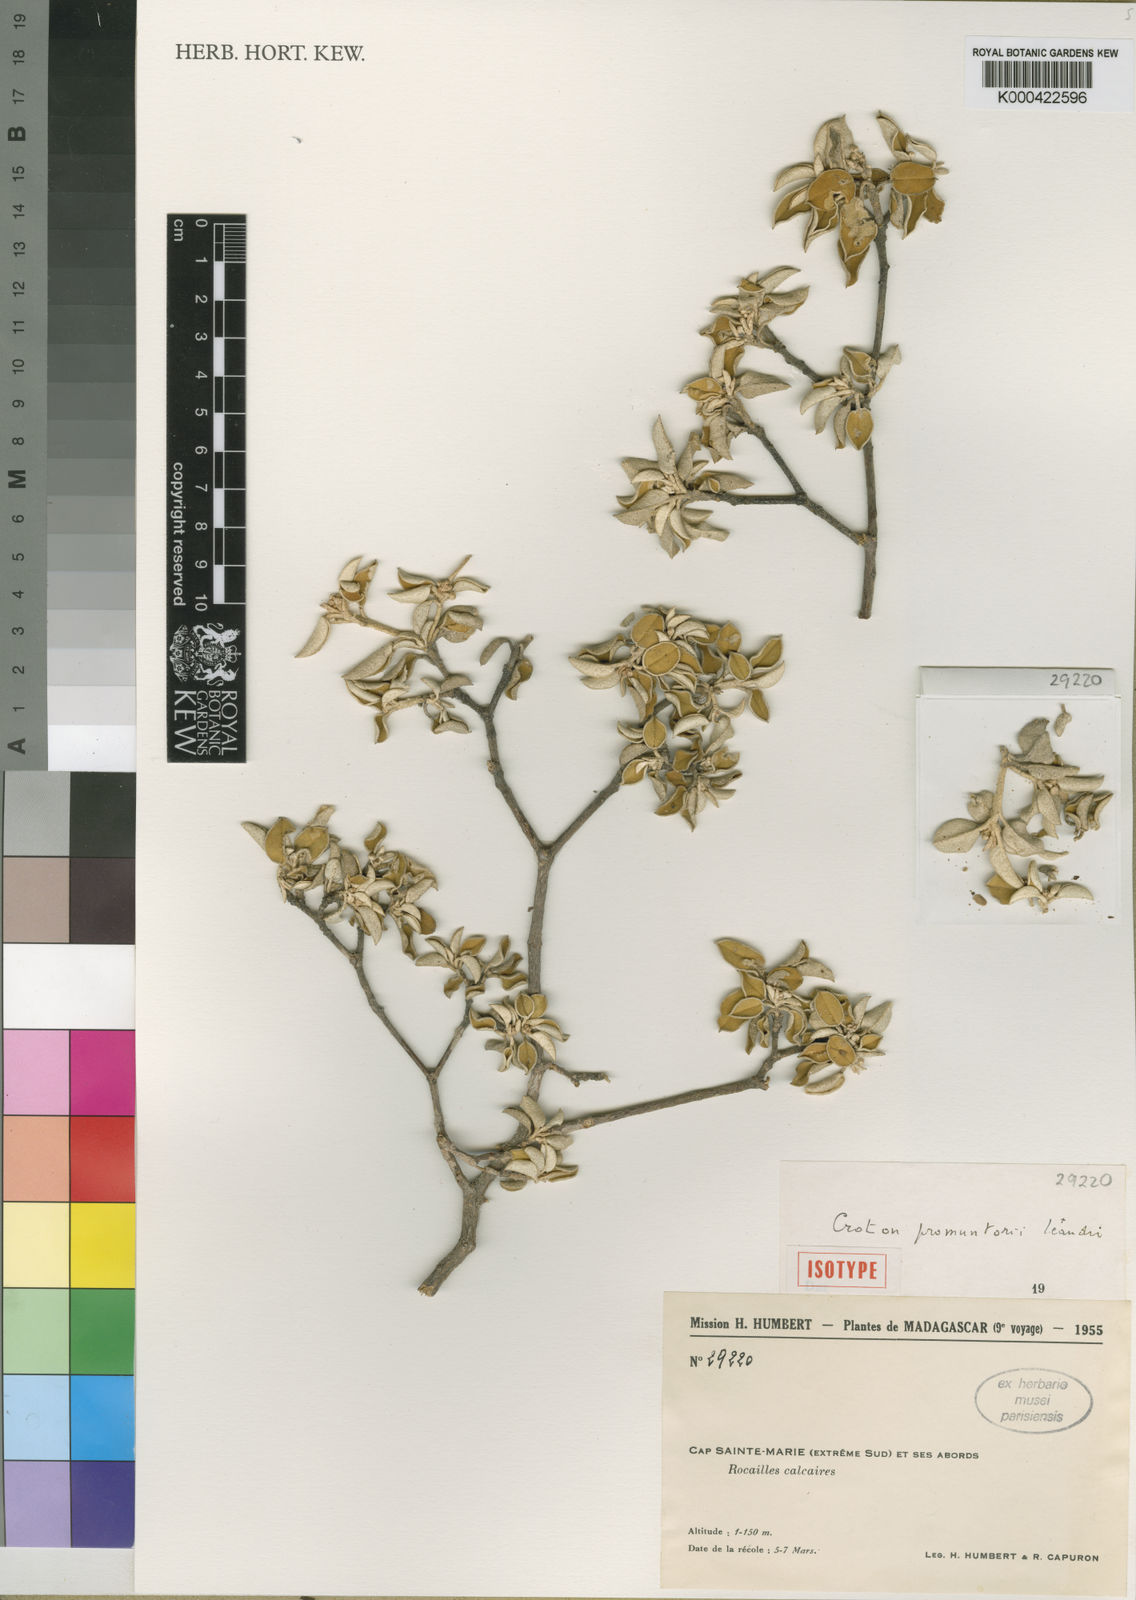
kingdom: Plantae
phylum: Tracheophyta
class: Magnoliopsida
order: Malpighiales
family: Euphorbiaceae
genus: Croton
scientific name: Croton promunturii
